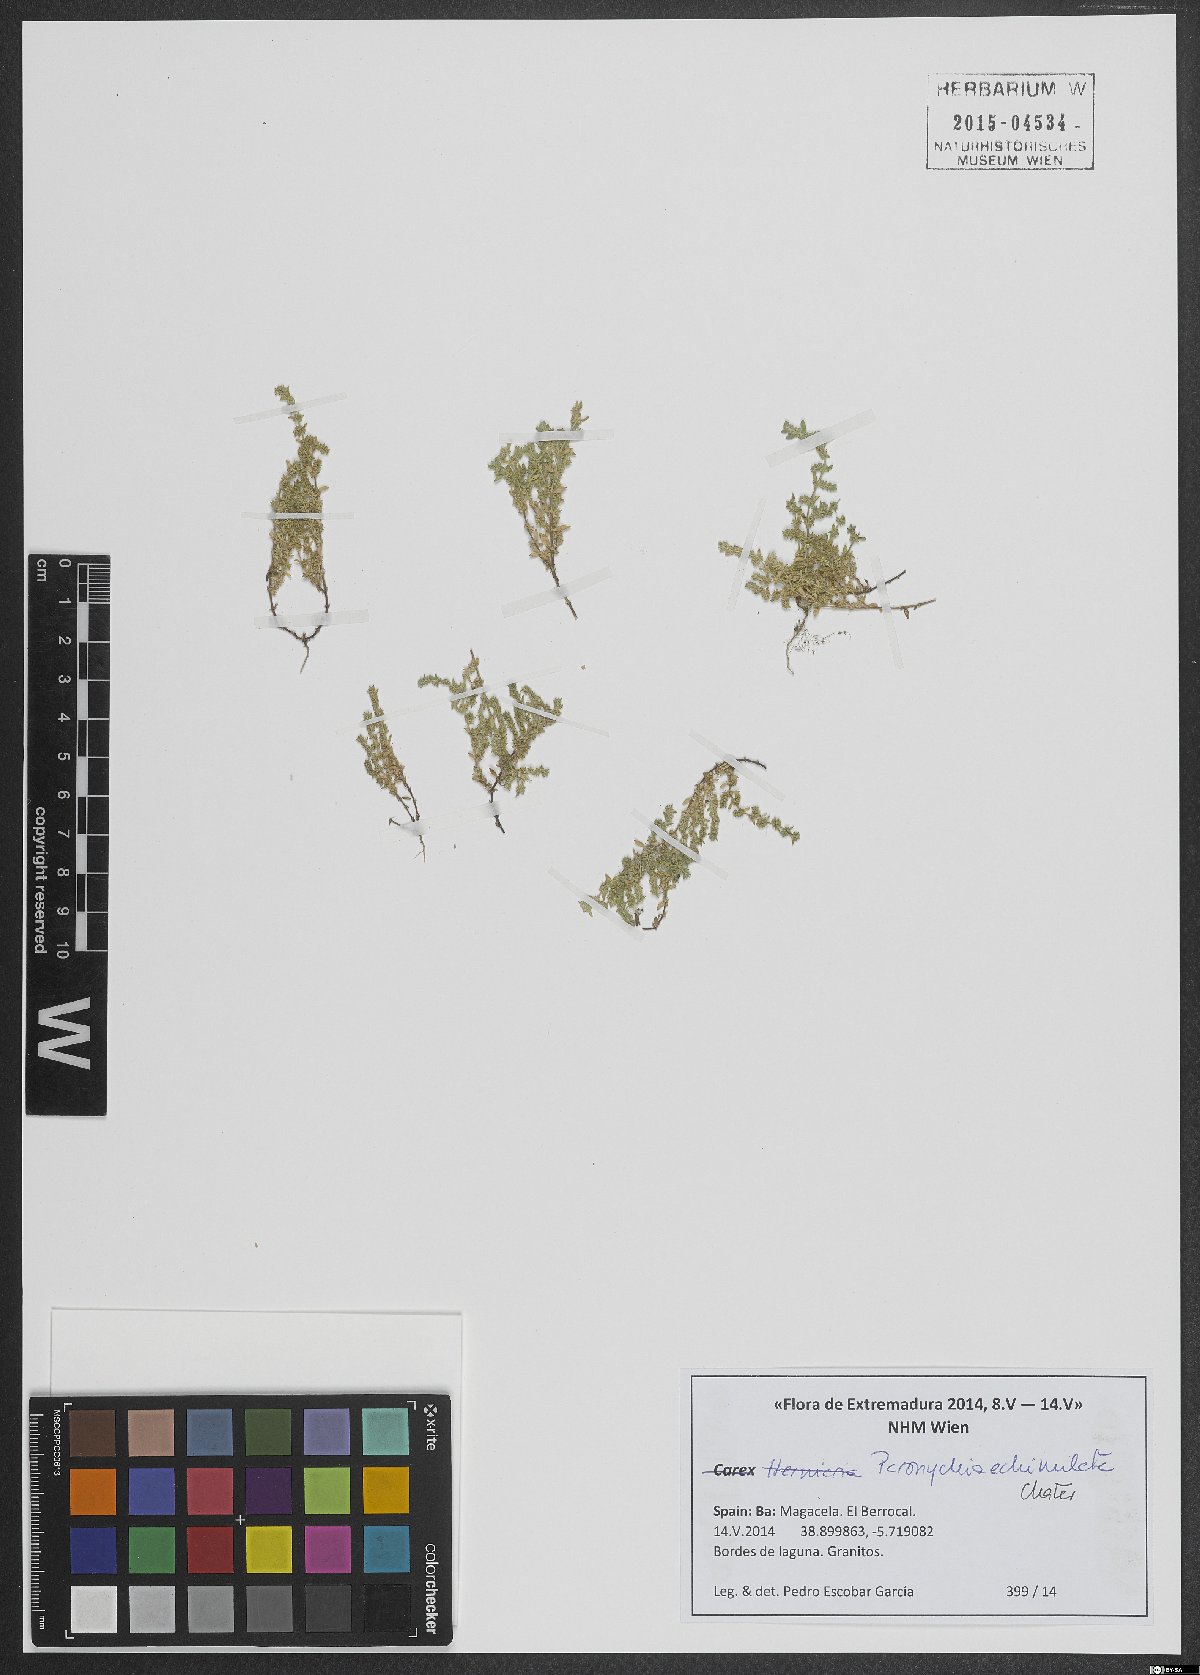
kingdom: Plantae
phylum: Tracheophyta
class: Magnoliopsida
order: Caryophyllales
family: Caryophyllaceae
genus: Paronychia
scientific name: Paronychia echinulata
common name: Eurasian nailwort
